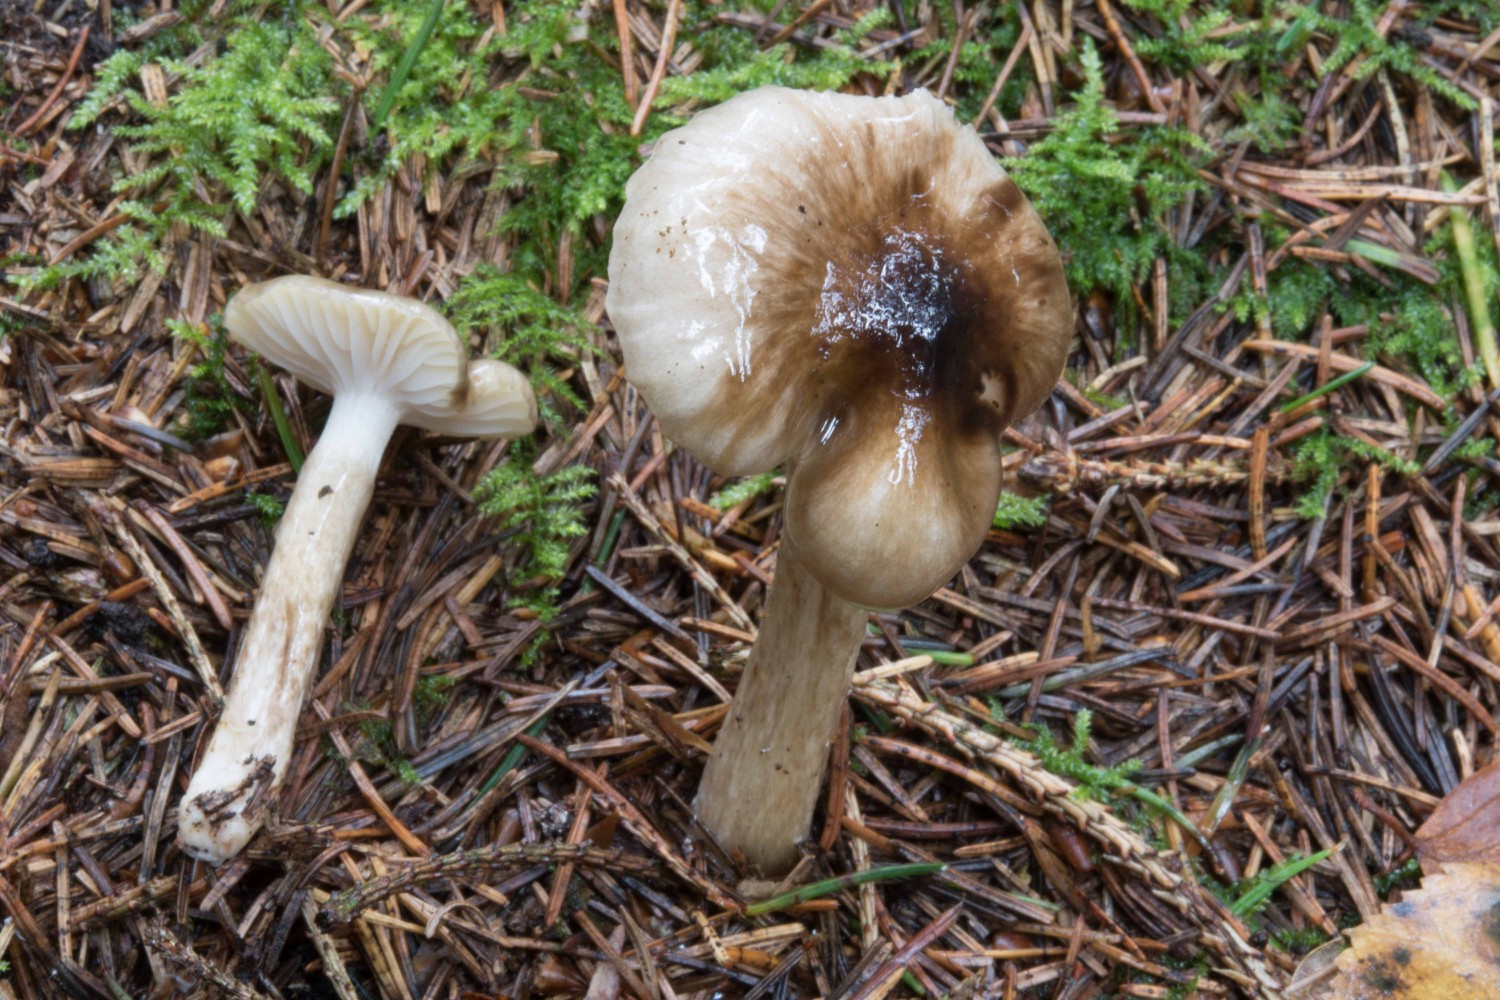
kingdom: Fungi
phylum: Basidiomycota
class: Agaricomycetes
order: Agaricales
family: Hygrophoraceae
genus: Hygrophorus
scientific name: Hygrophorus olivaceoalbus
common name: hvidbrun sneglehat
